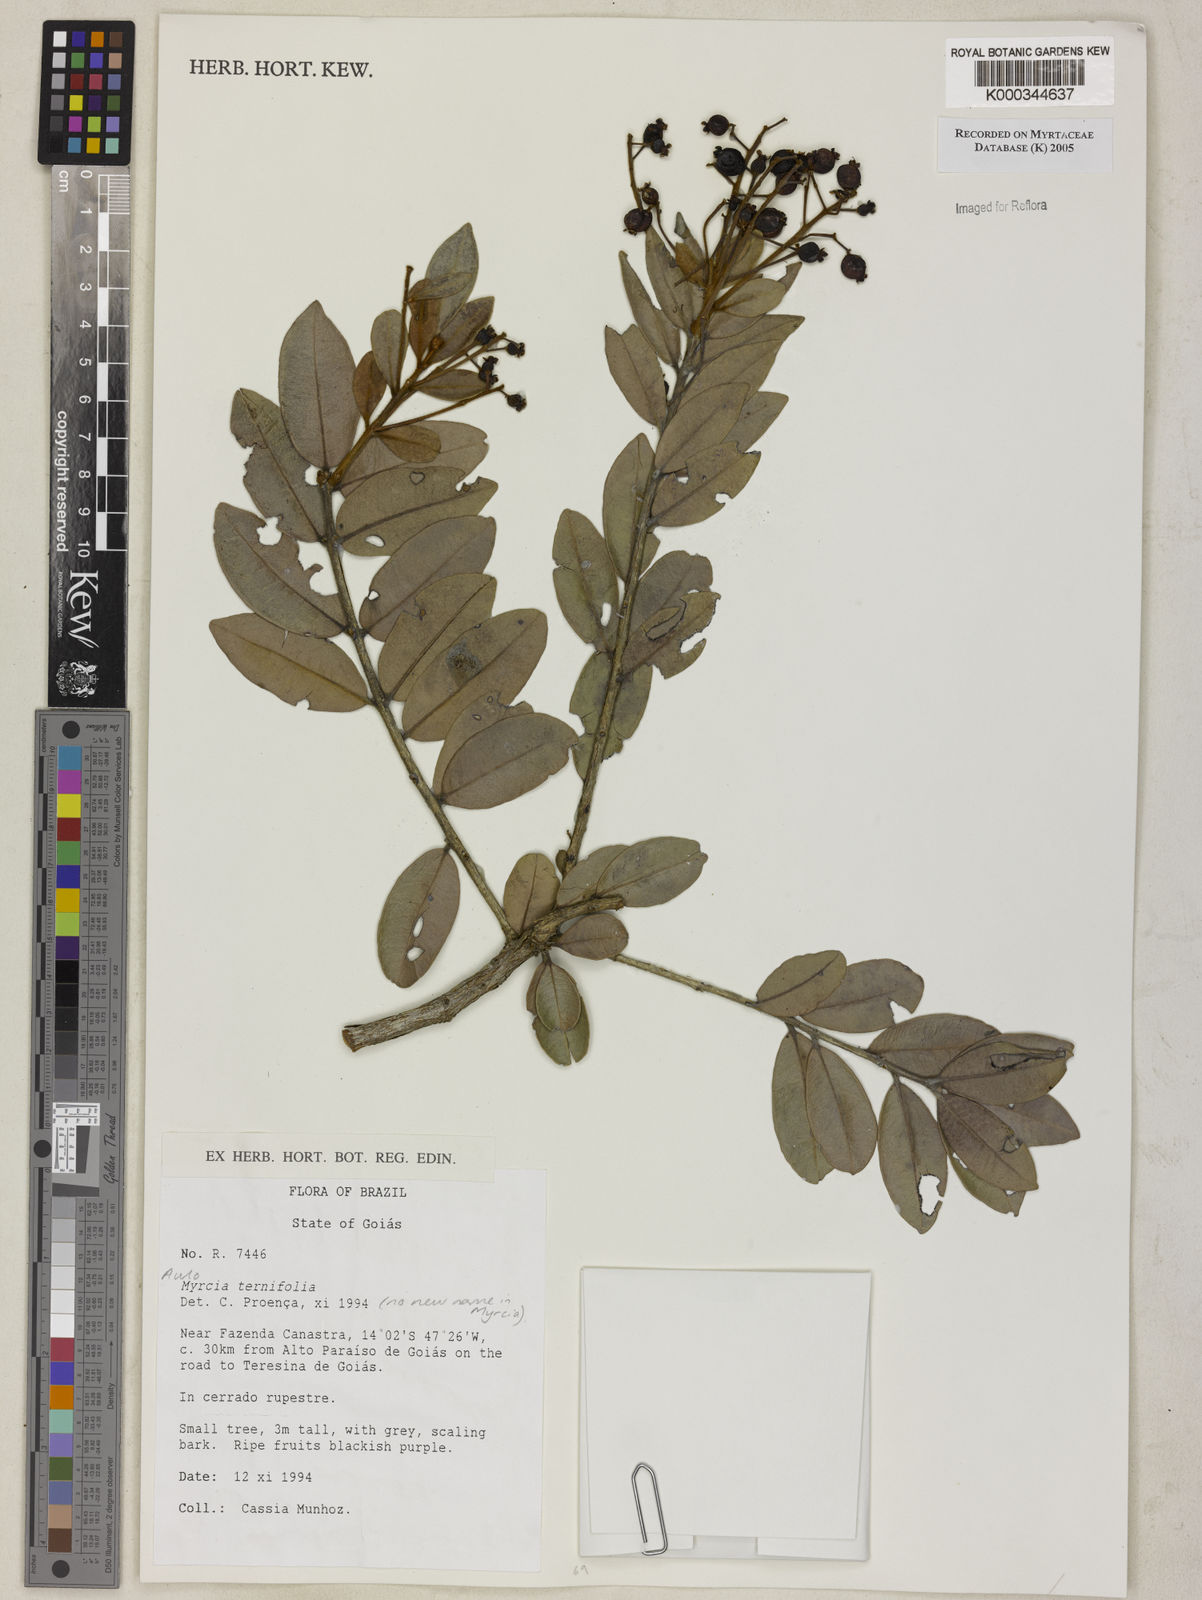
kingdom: Plantae
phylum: Tracheophyta
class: Magnoliopsida
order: Myrtales
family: Myrtaceae
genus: Myrcia
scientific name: Myrcia rufipes
